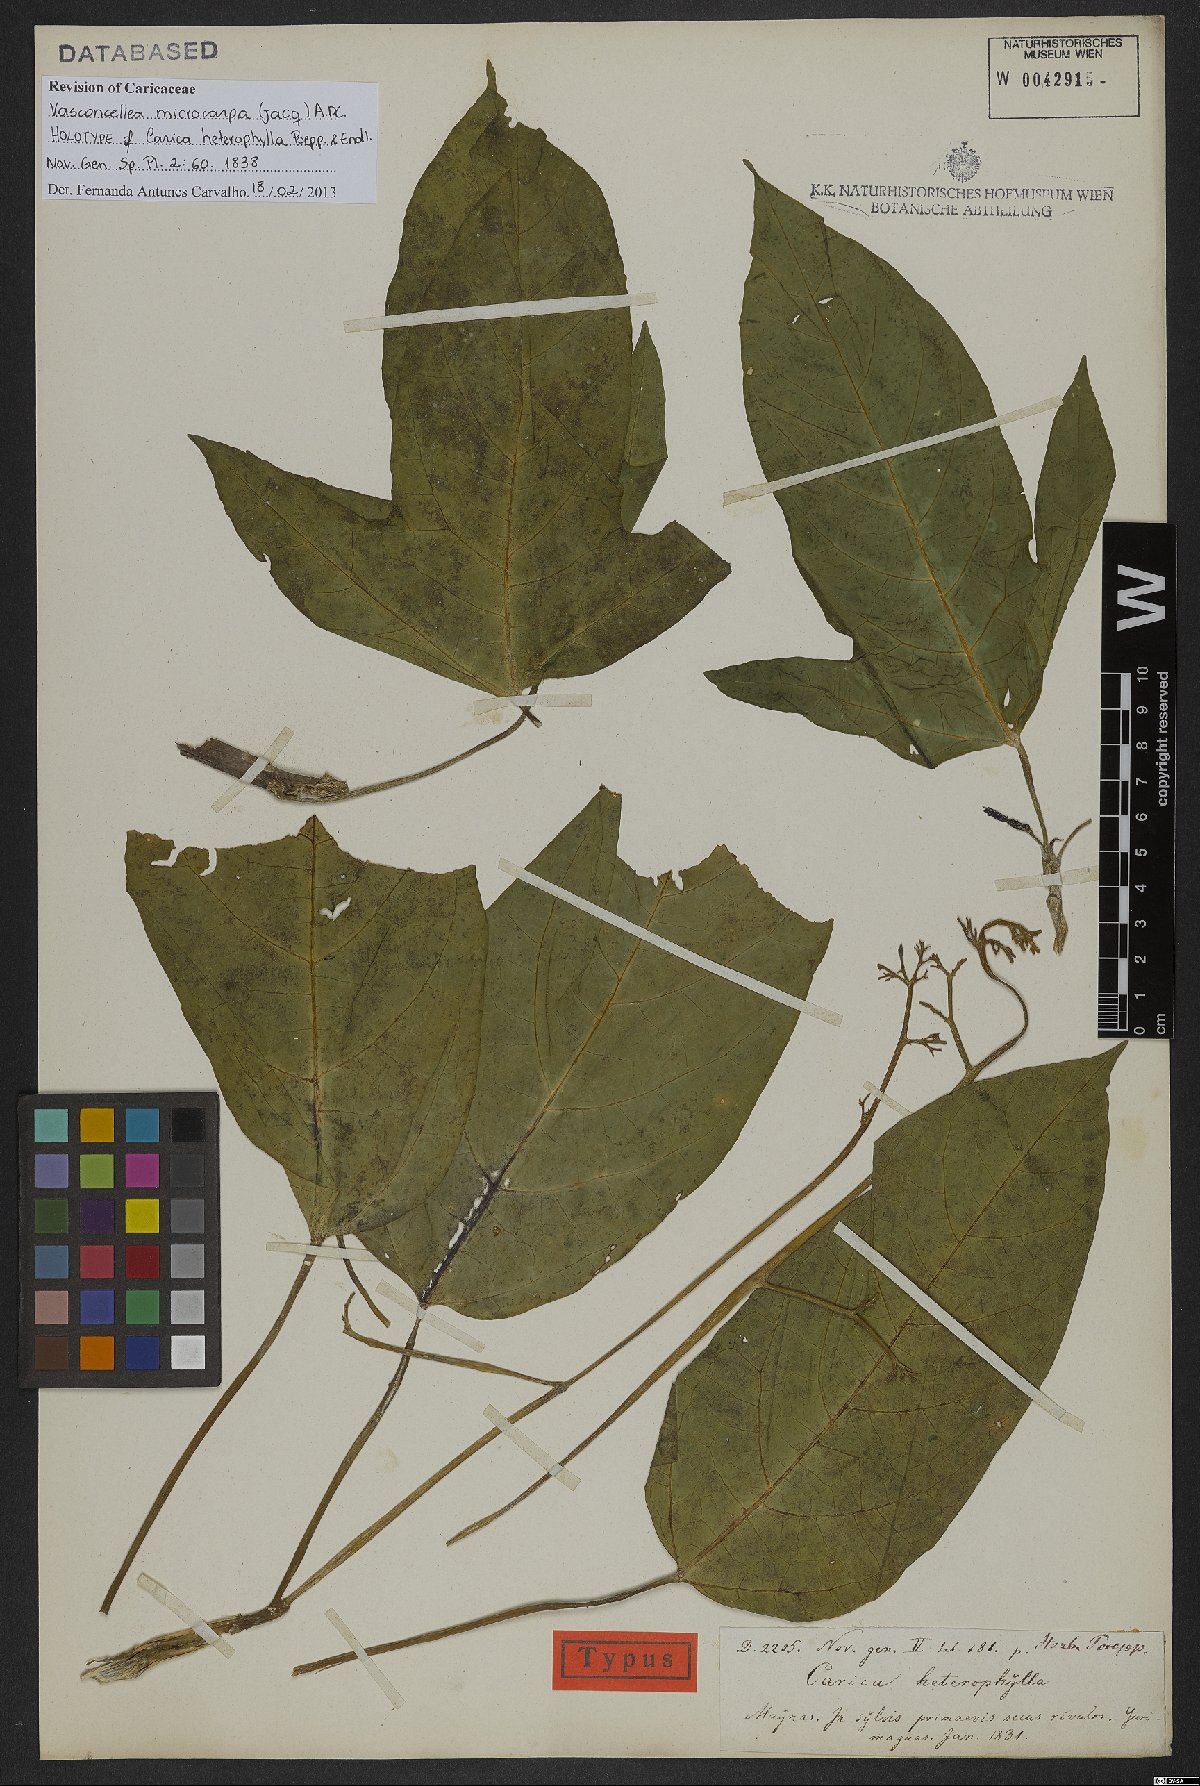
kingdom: Plantae
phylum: Tracheophyta
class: Magnoliopsida
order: Brassicales
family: Caricaceae
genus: Vasconcellea
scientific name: Vasconcellea microcarpa
